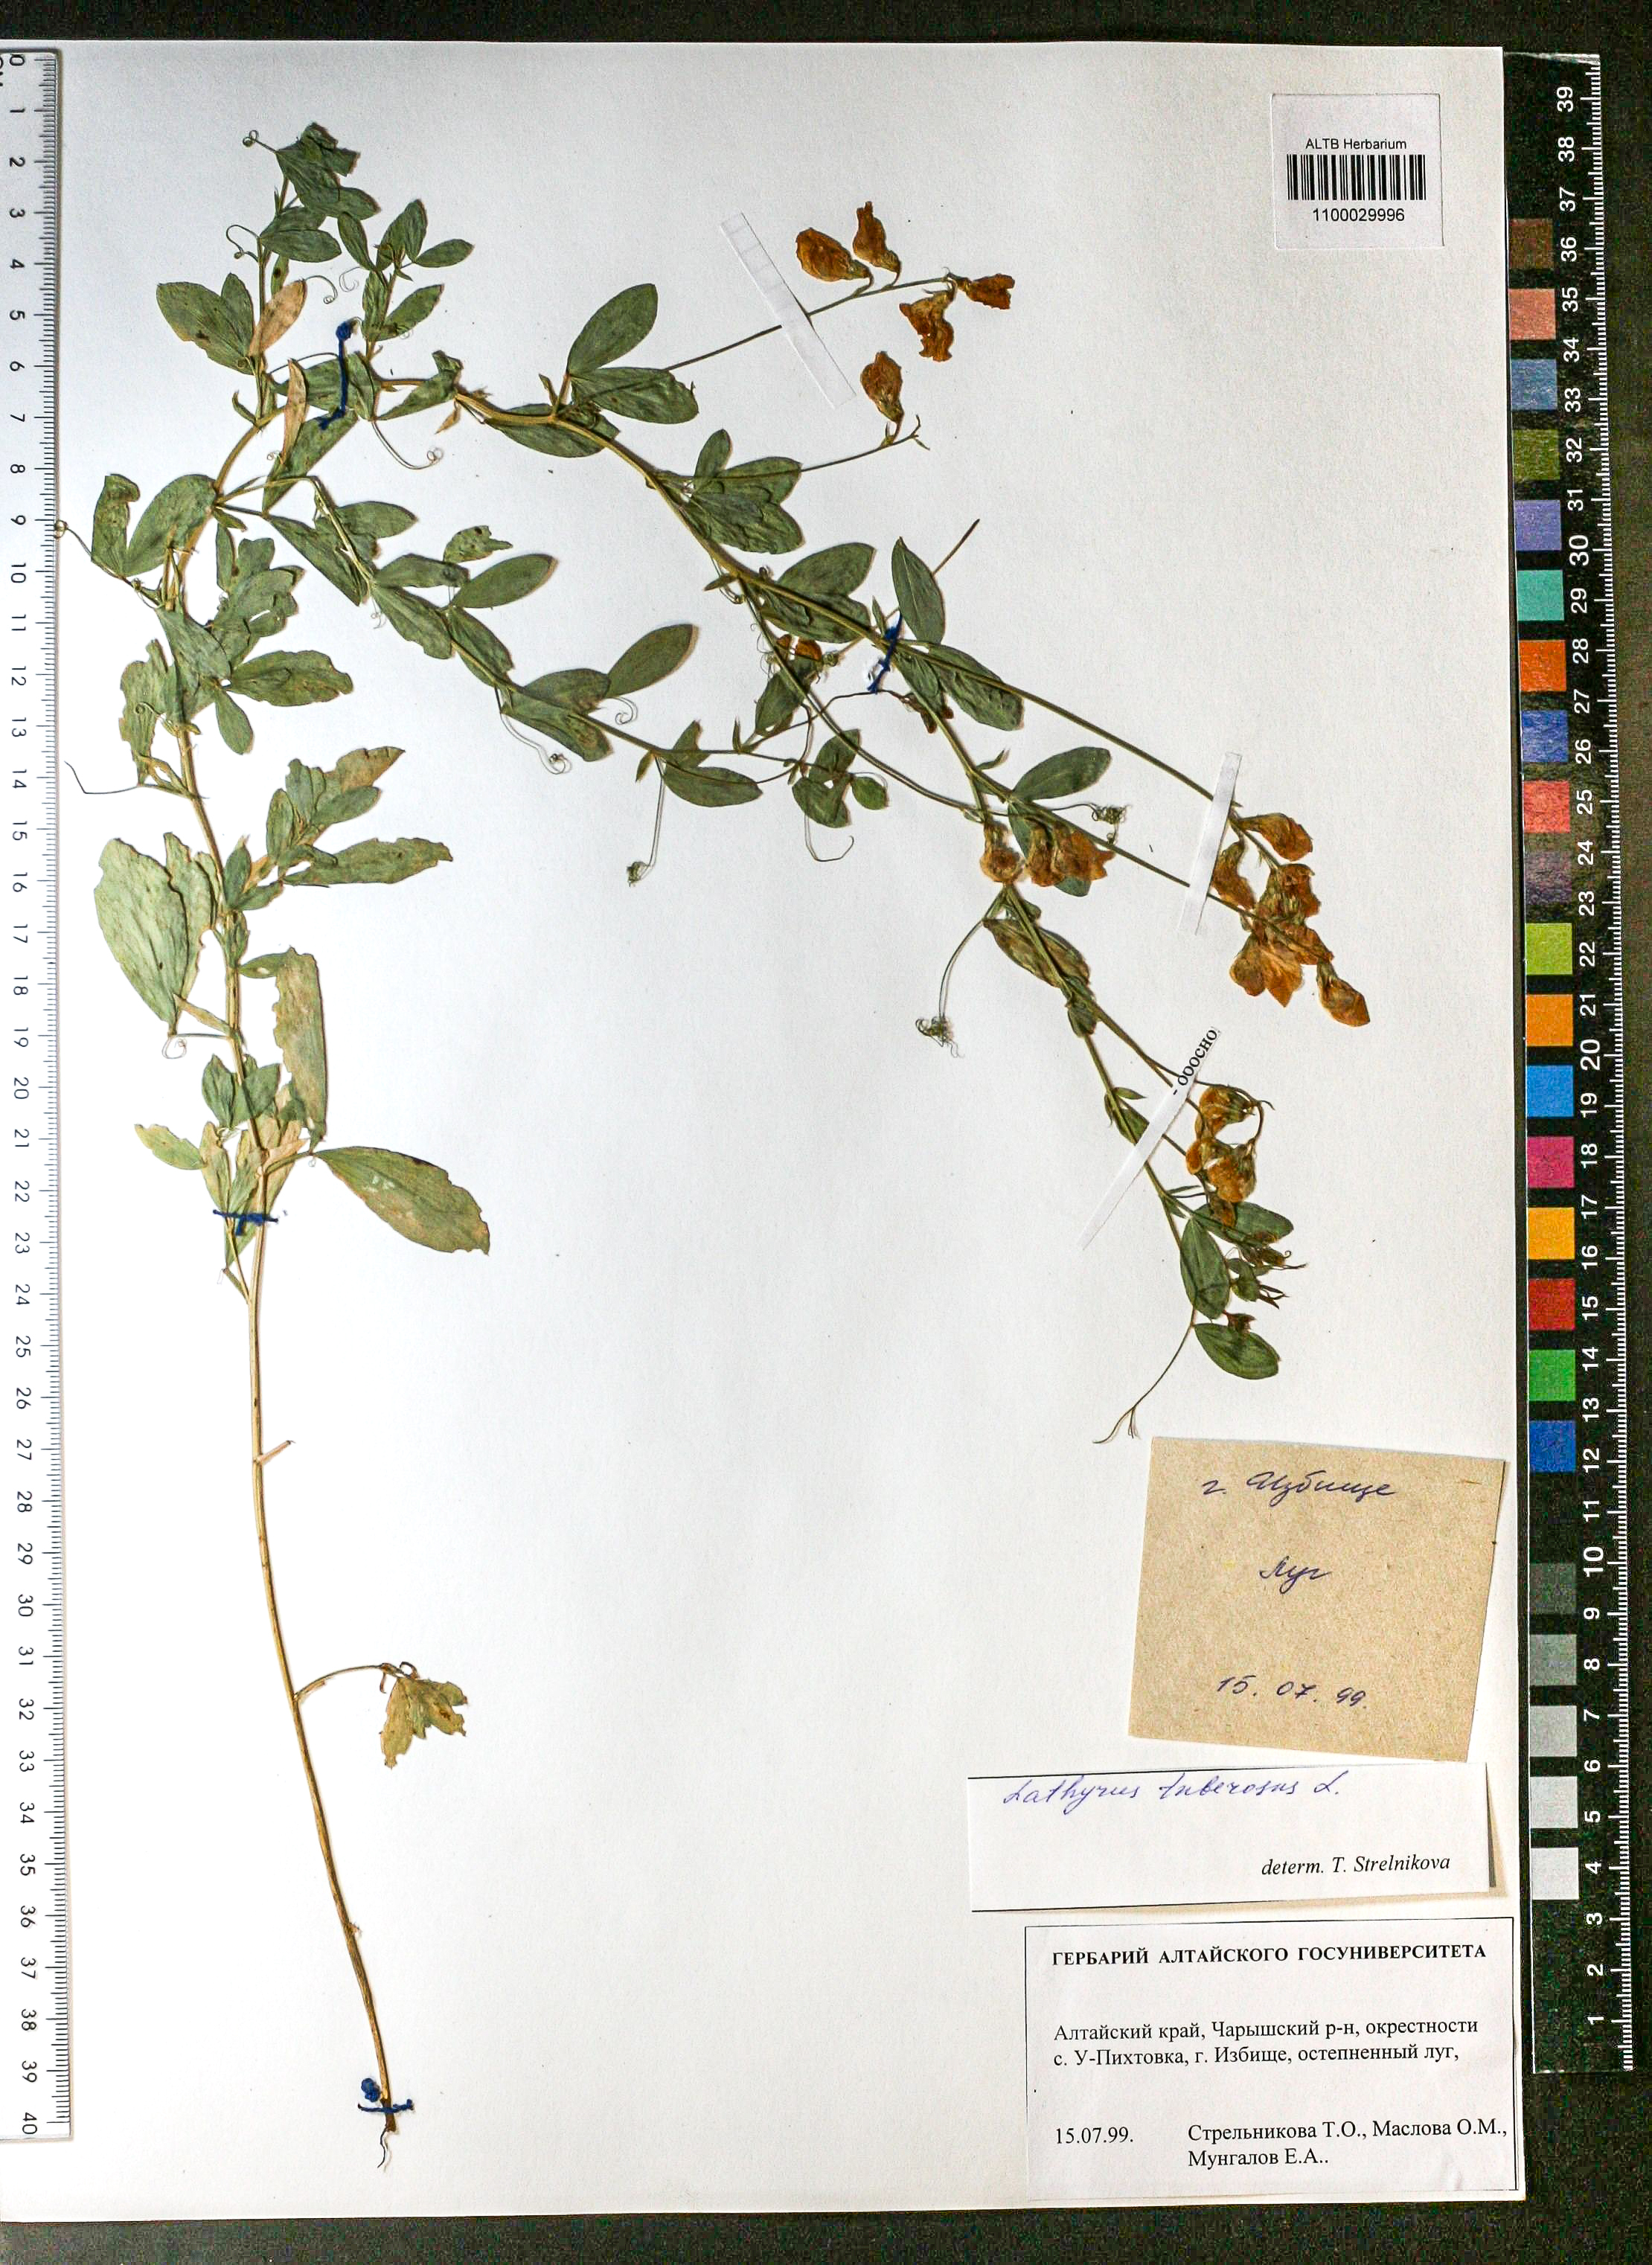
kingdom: Plantae
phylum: Tracheophyta
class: Magnoliopsida
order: Fabales
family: Fabaceae
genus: Lathyrus
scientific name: Lathyrus tuberosus
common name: Tuberous pea
